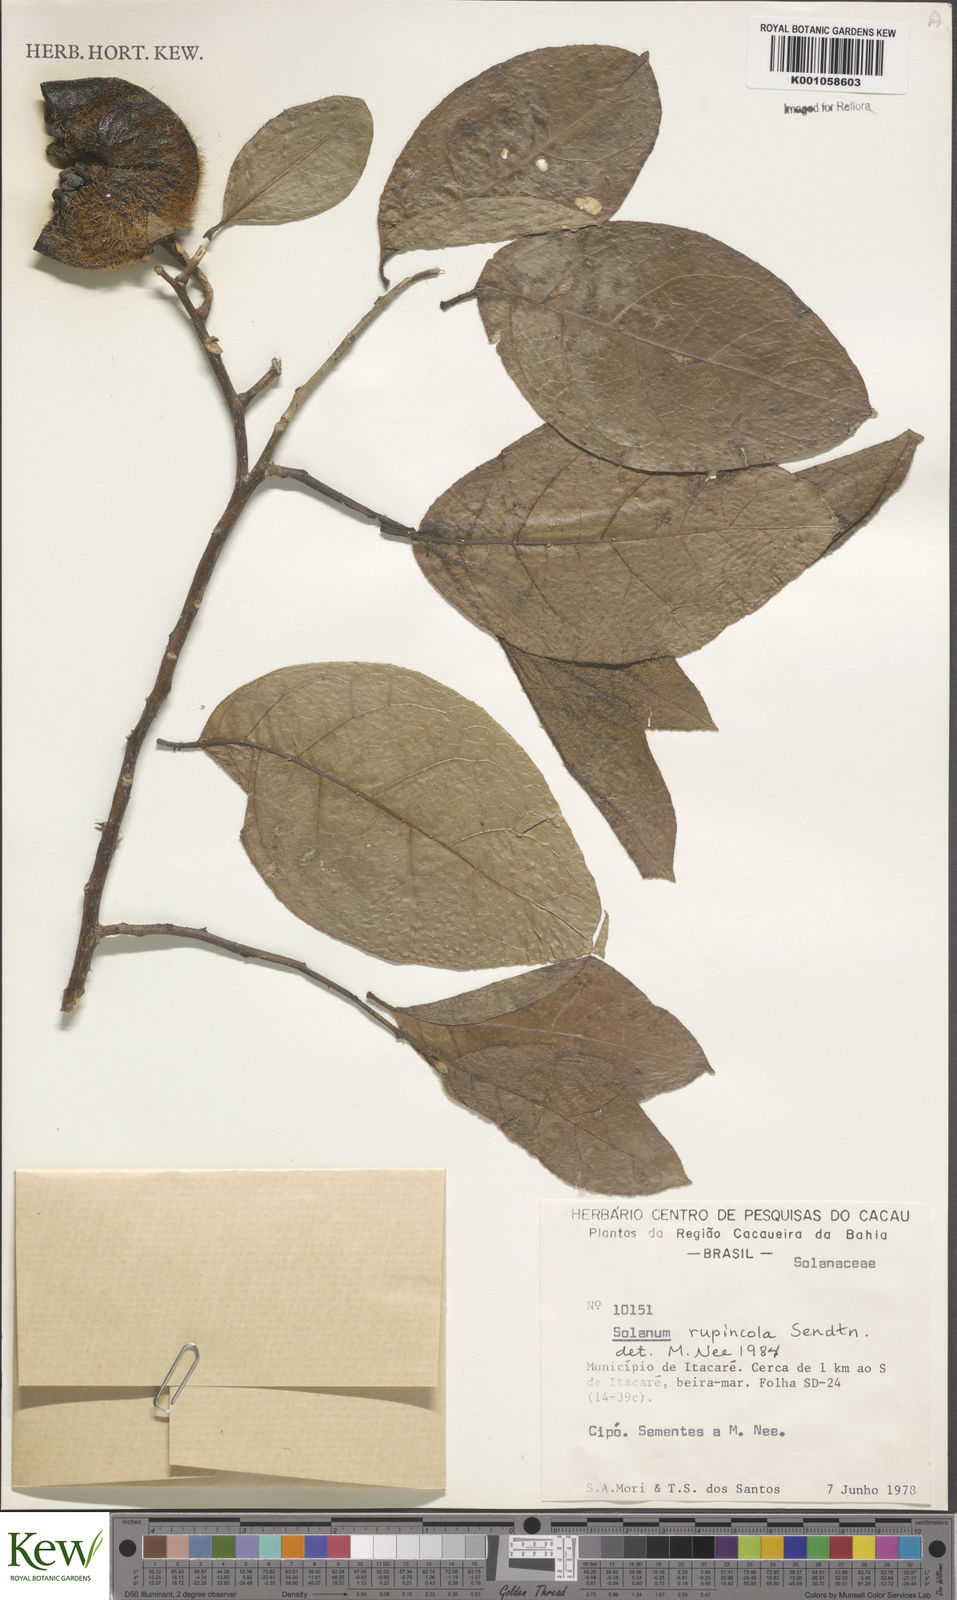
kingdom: Plantae
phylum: Tracheophyta
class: Magnoliopsida
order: Solanales
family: Solanaceae
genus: Solanum
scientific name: Solanum rupincola
